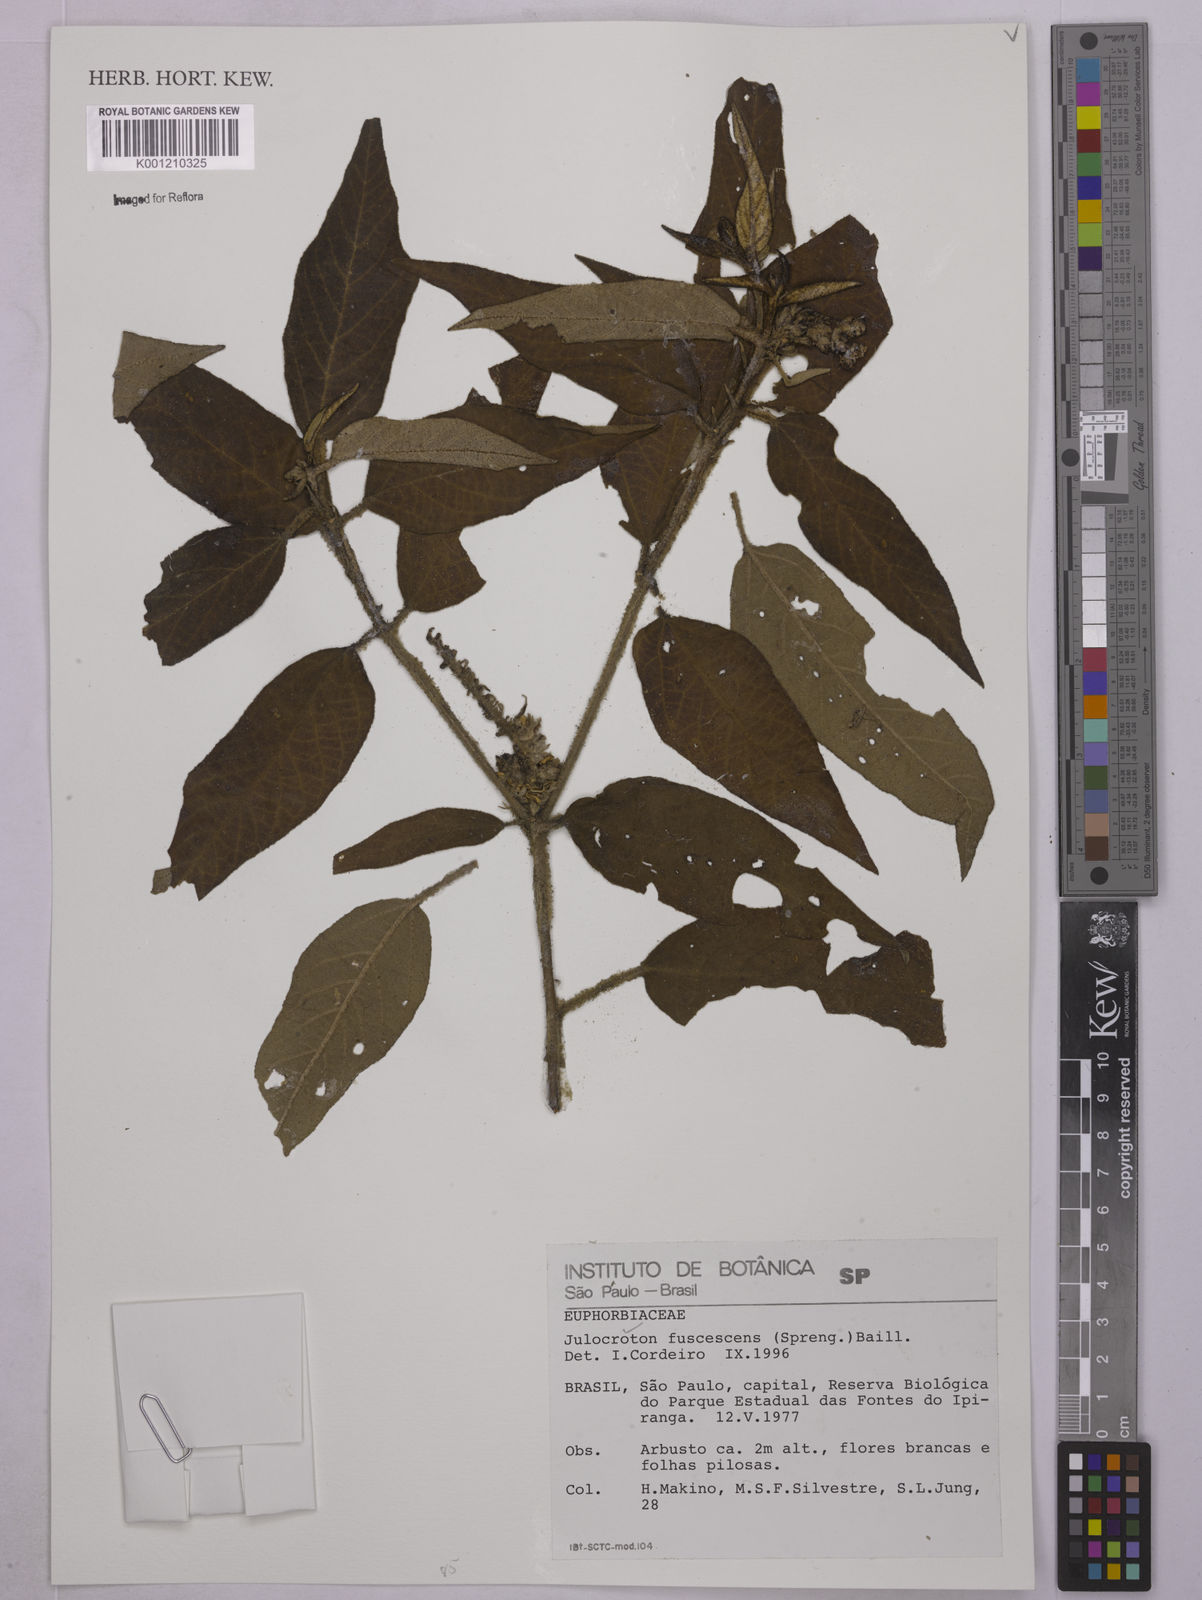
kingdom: Plantae
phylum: Tracheophyta
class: Magnoliopsida
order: Malpighiales
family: Euphorbiaceae
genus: Croton
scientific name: Croton gnaphaloides
